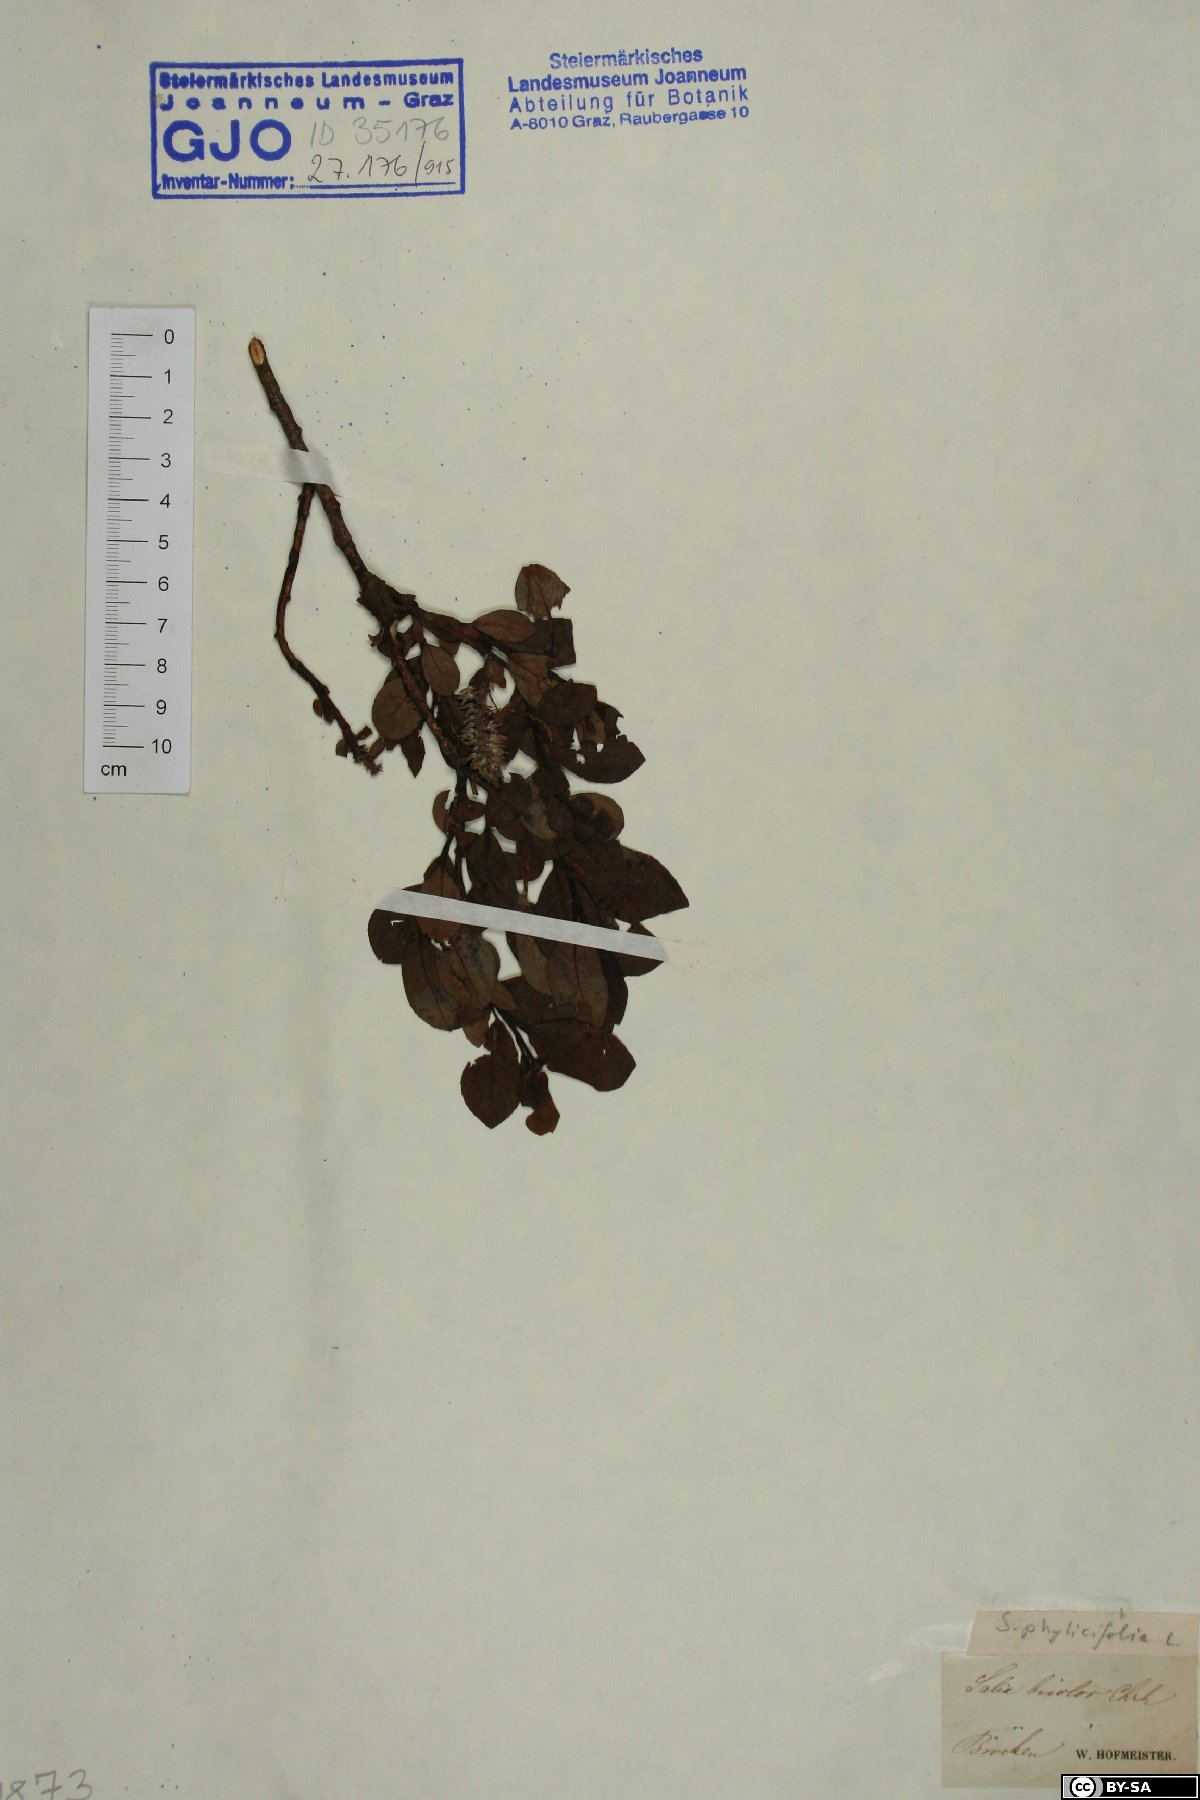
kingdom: Plantae
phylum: Tracheophyta
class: Magnoliopsida
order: Malpighiales
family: Salicaceae
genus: Salix
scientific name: Salix phylicifolia
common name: Tea-leaved willow
